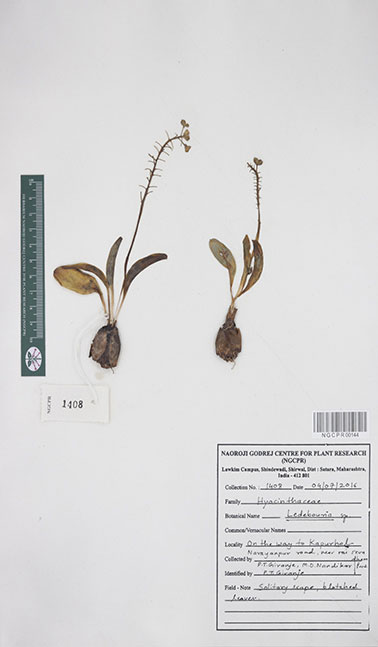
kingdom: Plantae
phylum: Tracheophyta
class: Liliopsida
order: Asparagales
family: Asparagaceae
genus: Ledebouria
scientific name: Ledebouria
